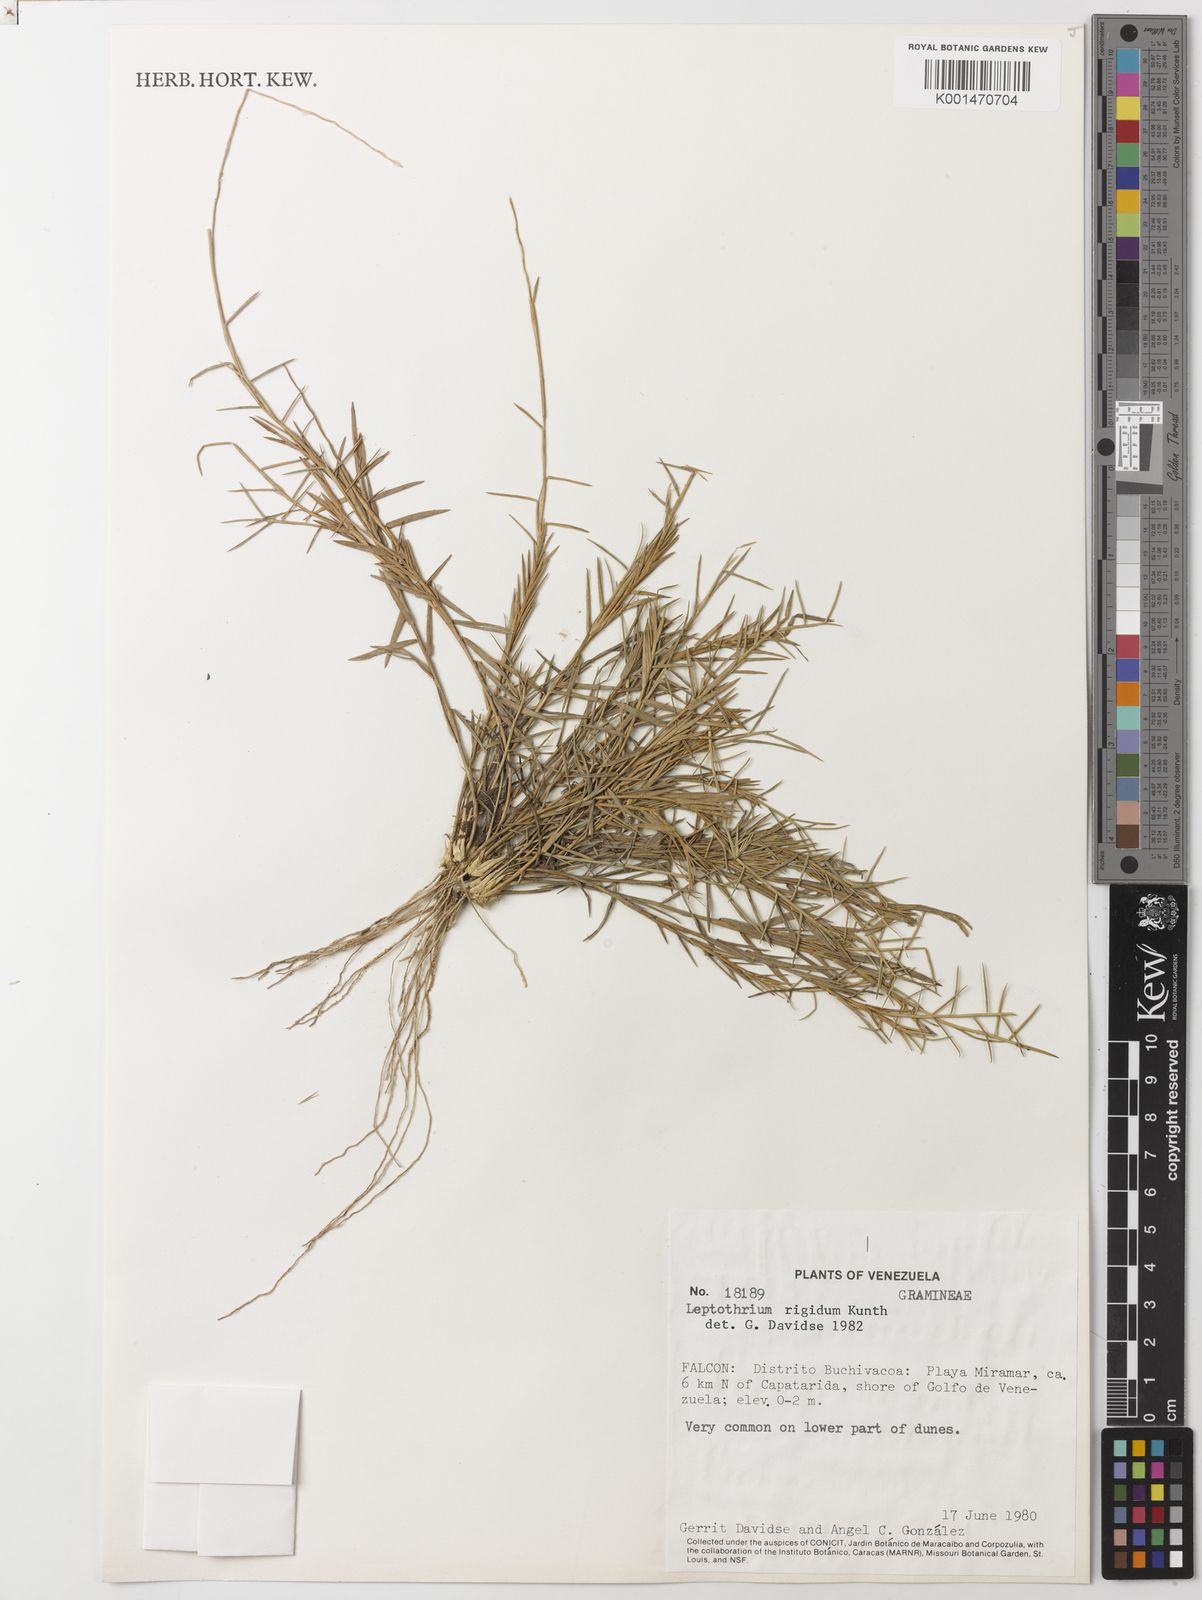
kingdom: Plantae
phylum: Tracheophyta
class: Liliopsida
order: Poales
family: Poaceae
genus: Leptothrium
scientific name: Leptothrium rigidum
